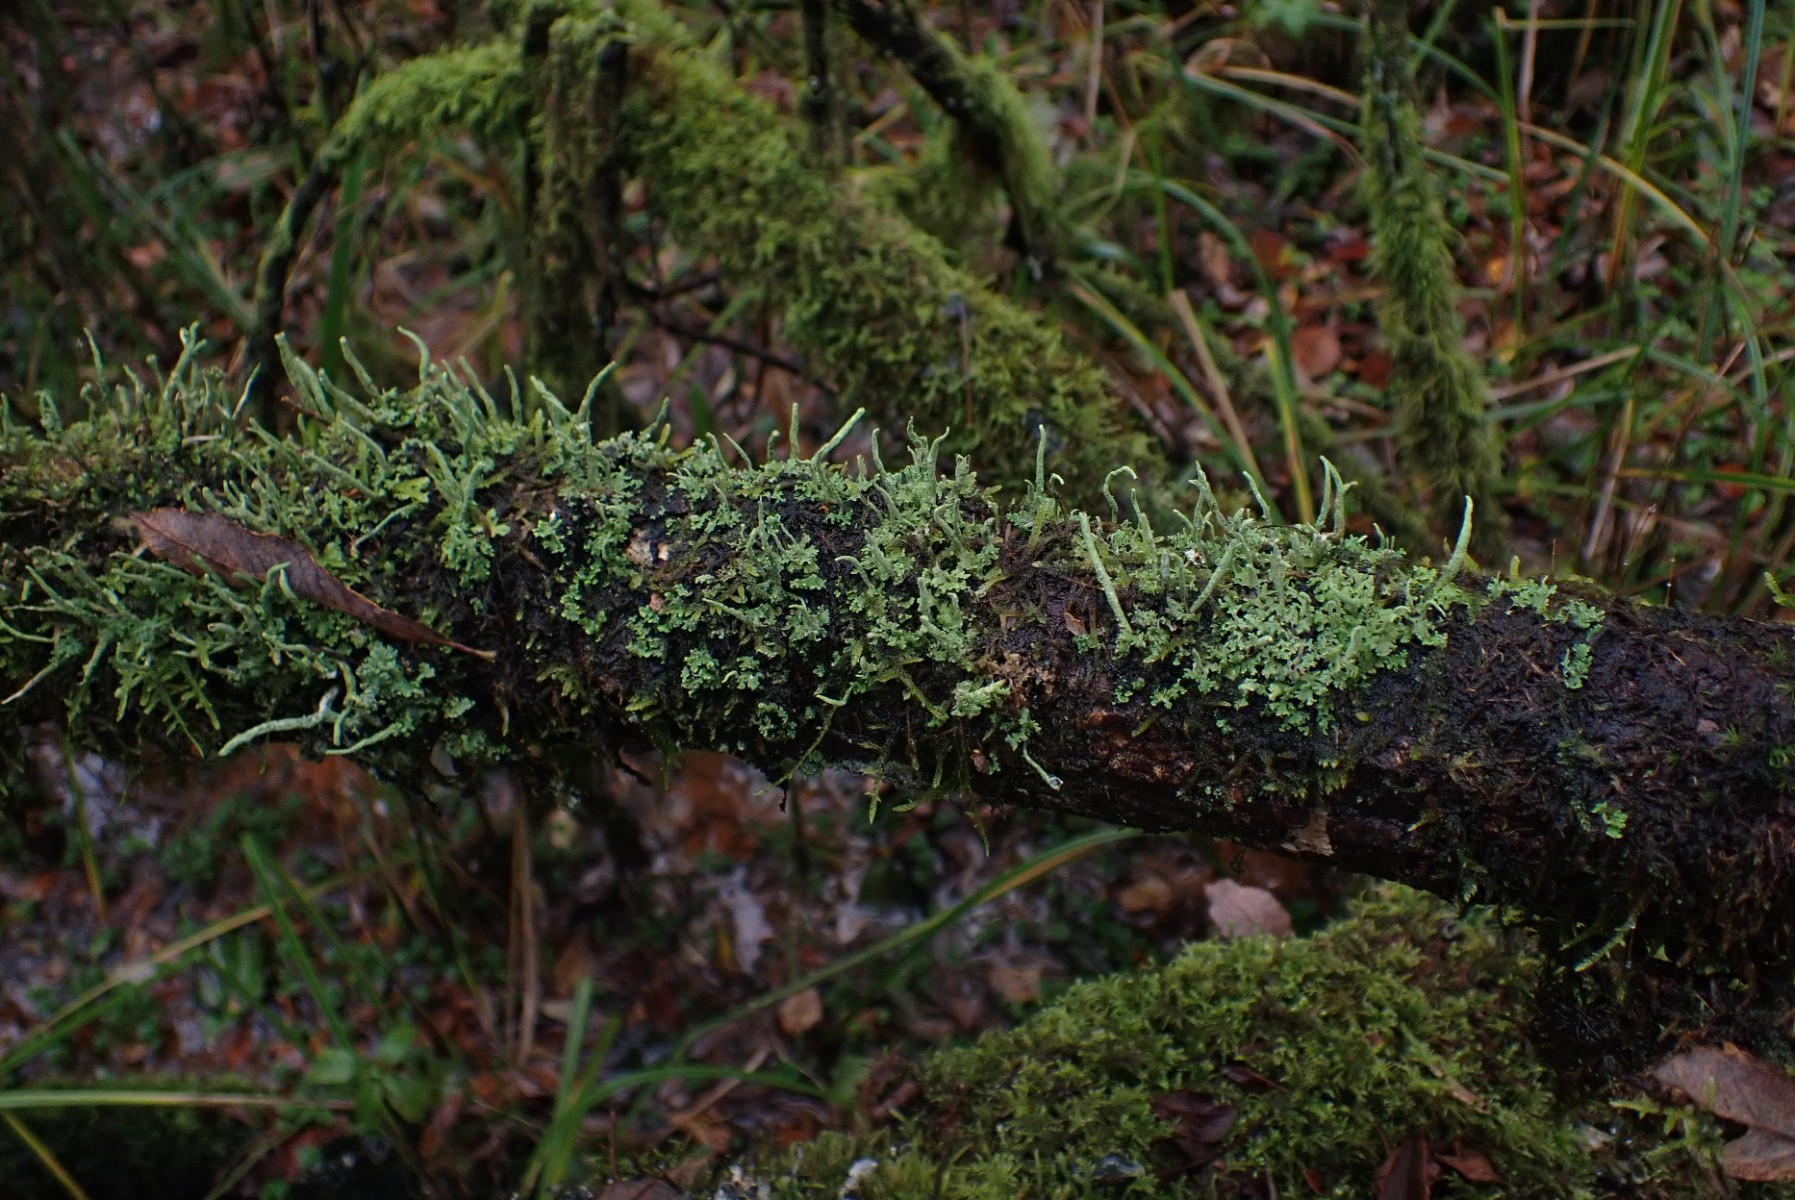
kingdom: Fungi
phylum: Ascomycota
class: Lecanoromycetes
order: Lecanorales
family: Cladoniaceae
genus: Cladonia
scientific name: Cladonia coniocraea
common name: træfods-bægerlav
